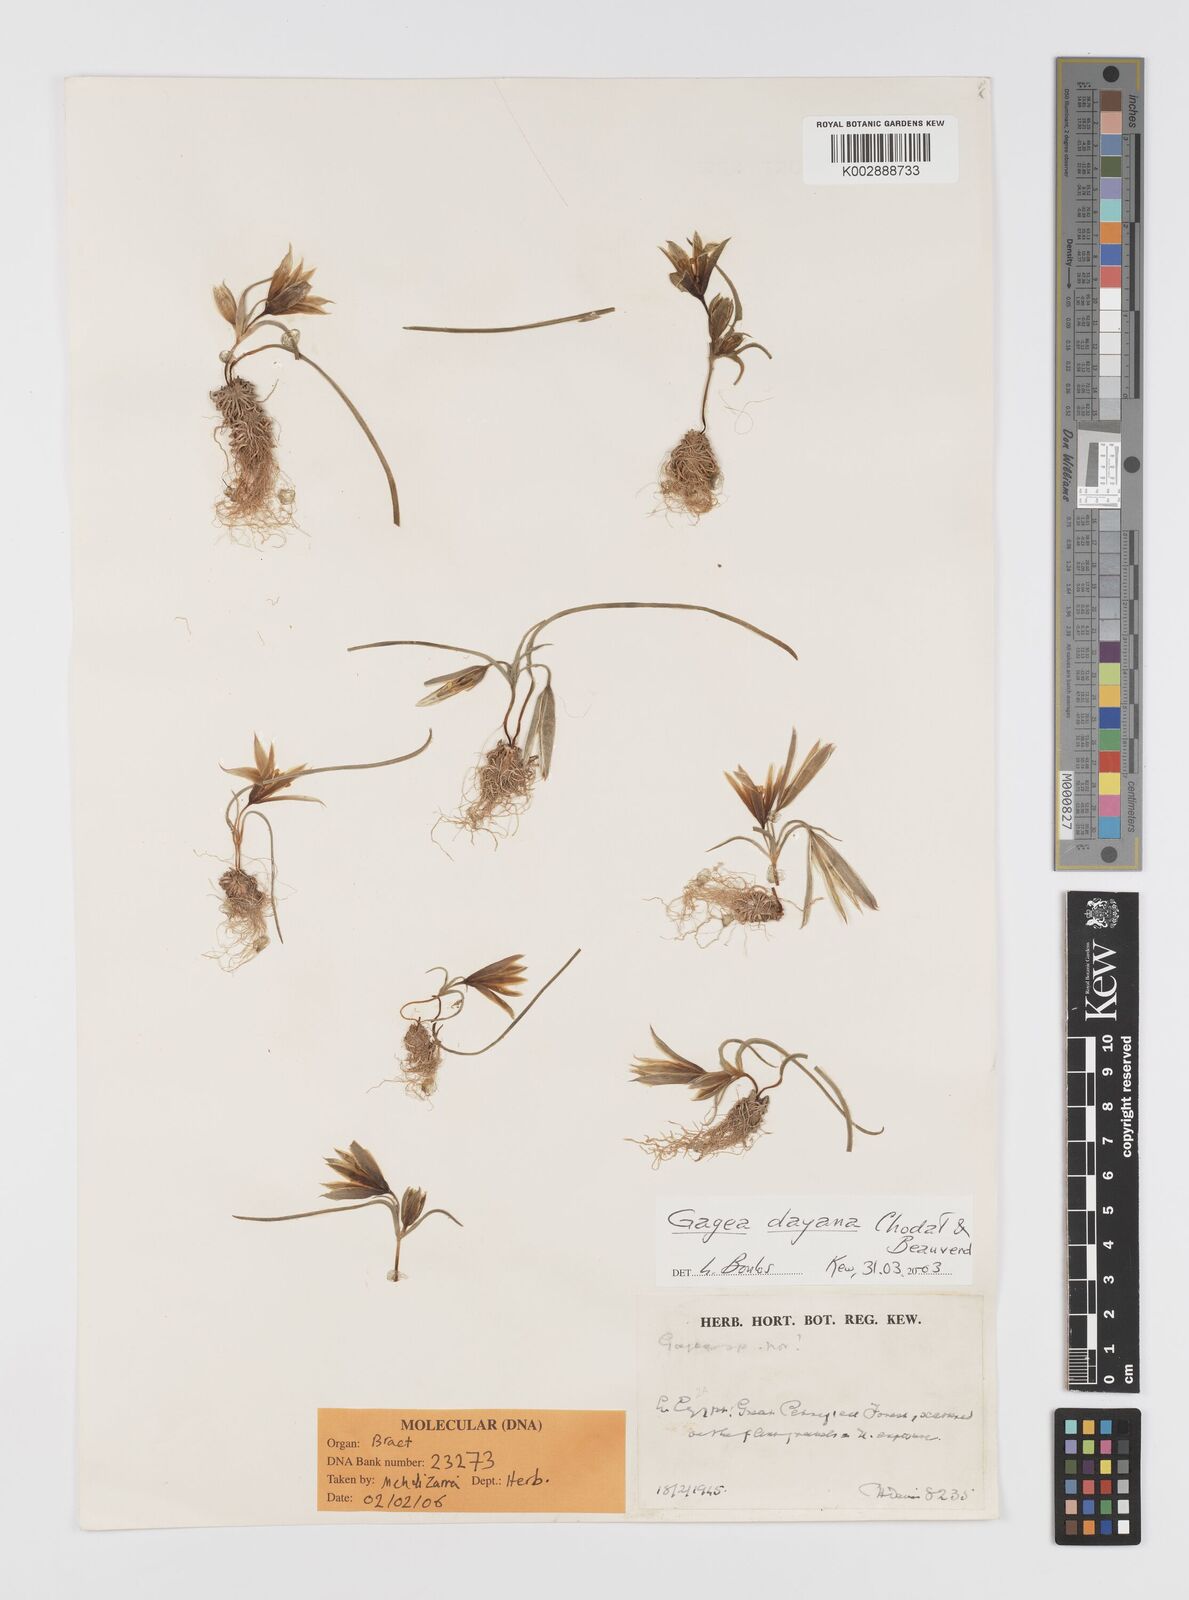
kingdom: Plantae
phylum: Tracheophyta
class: Liliopsida
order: Liliales
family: Liliaceae
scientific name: Liliaceae
